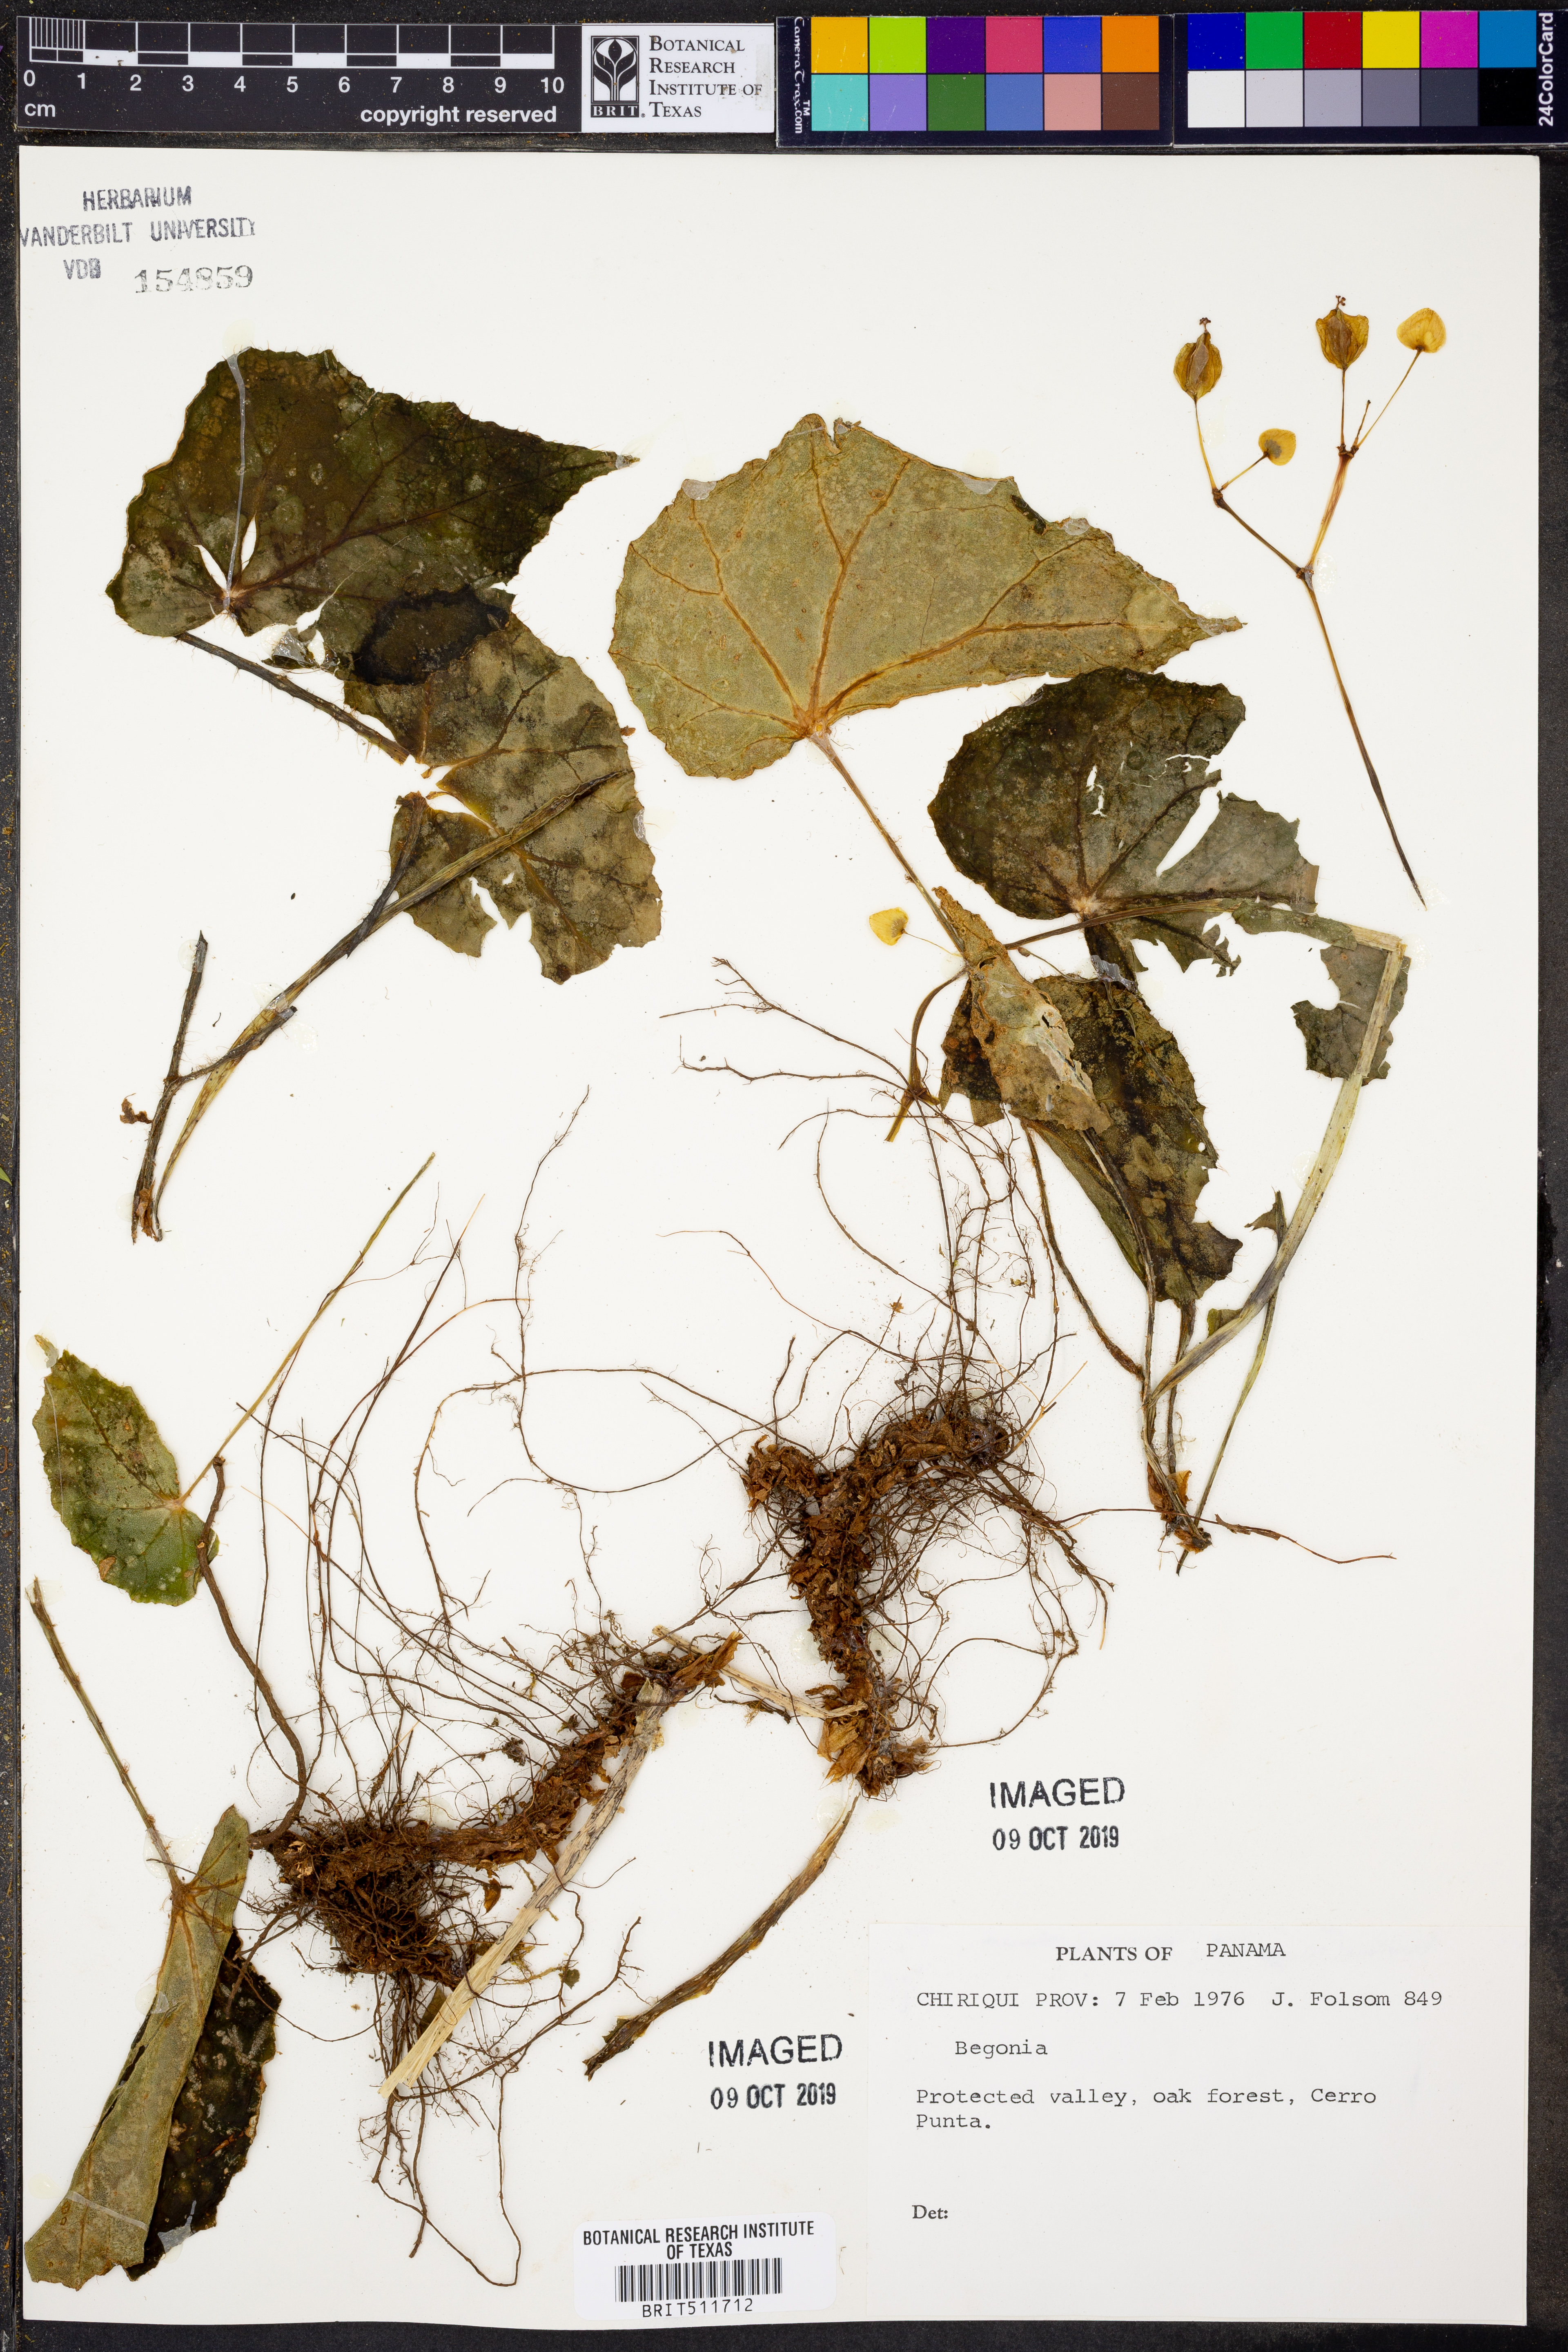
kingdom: Plantae
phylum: Tracheophyta
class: Magnoliopsida
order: Cucurbitales
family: Begoniaceae
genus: Begonia
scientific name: Begonia
